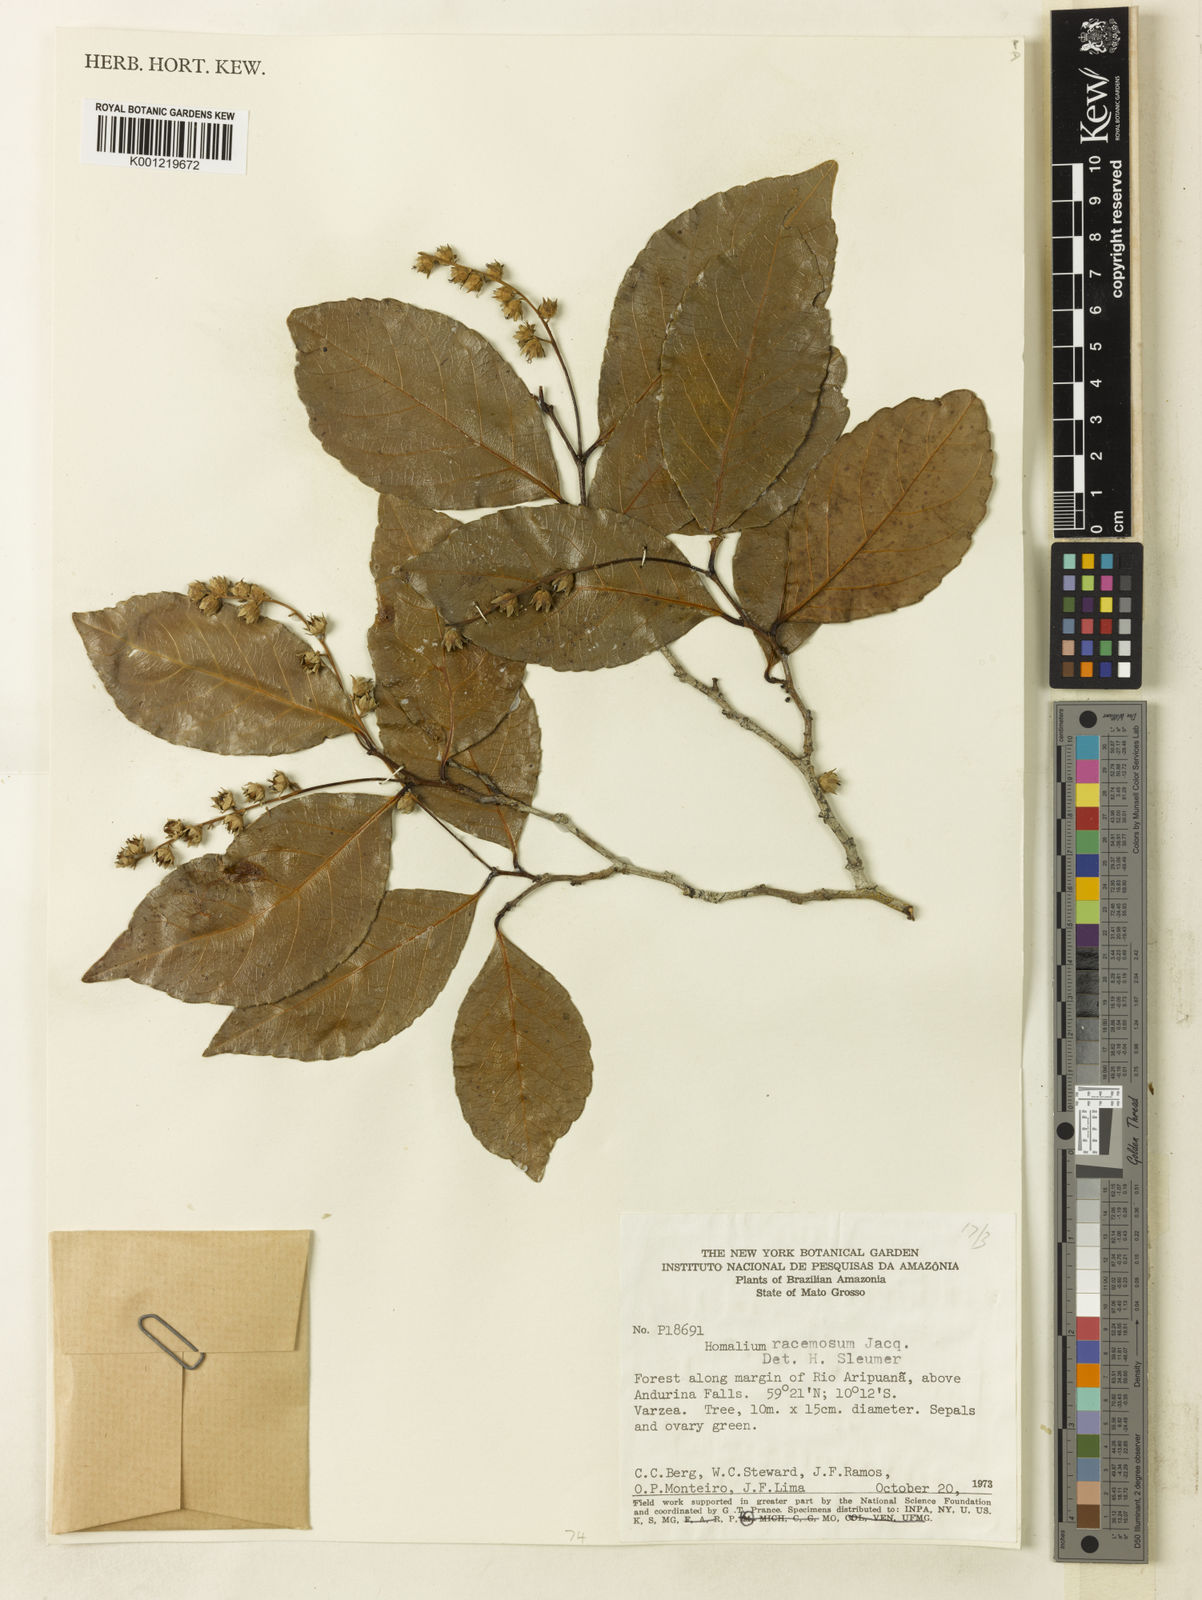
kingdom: Plantae
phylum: Tracheophyta
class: Magnoliopsida
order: Malpighiales
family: Salicaceae
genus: Homalium
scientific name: Homalium racemosum
